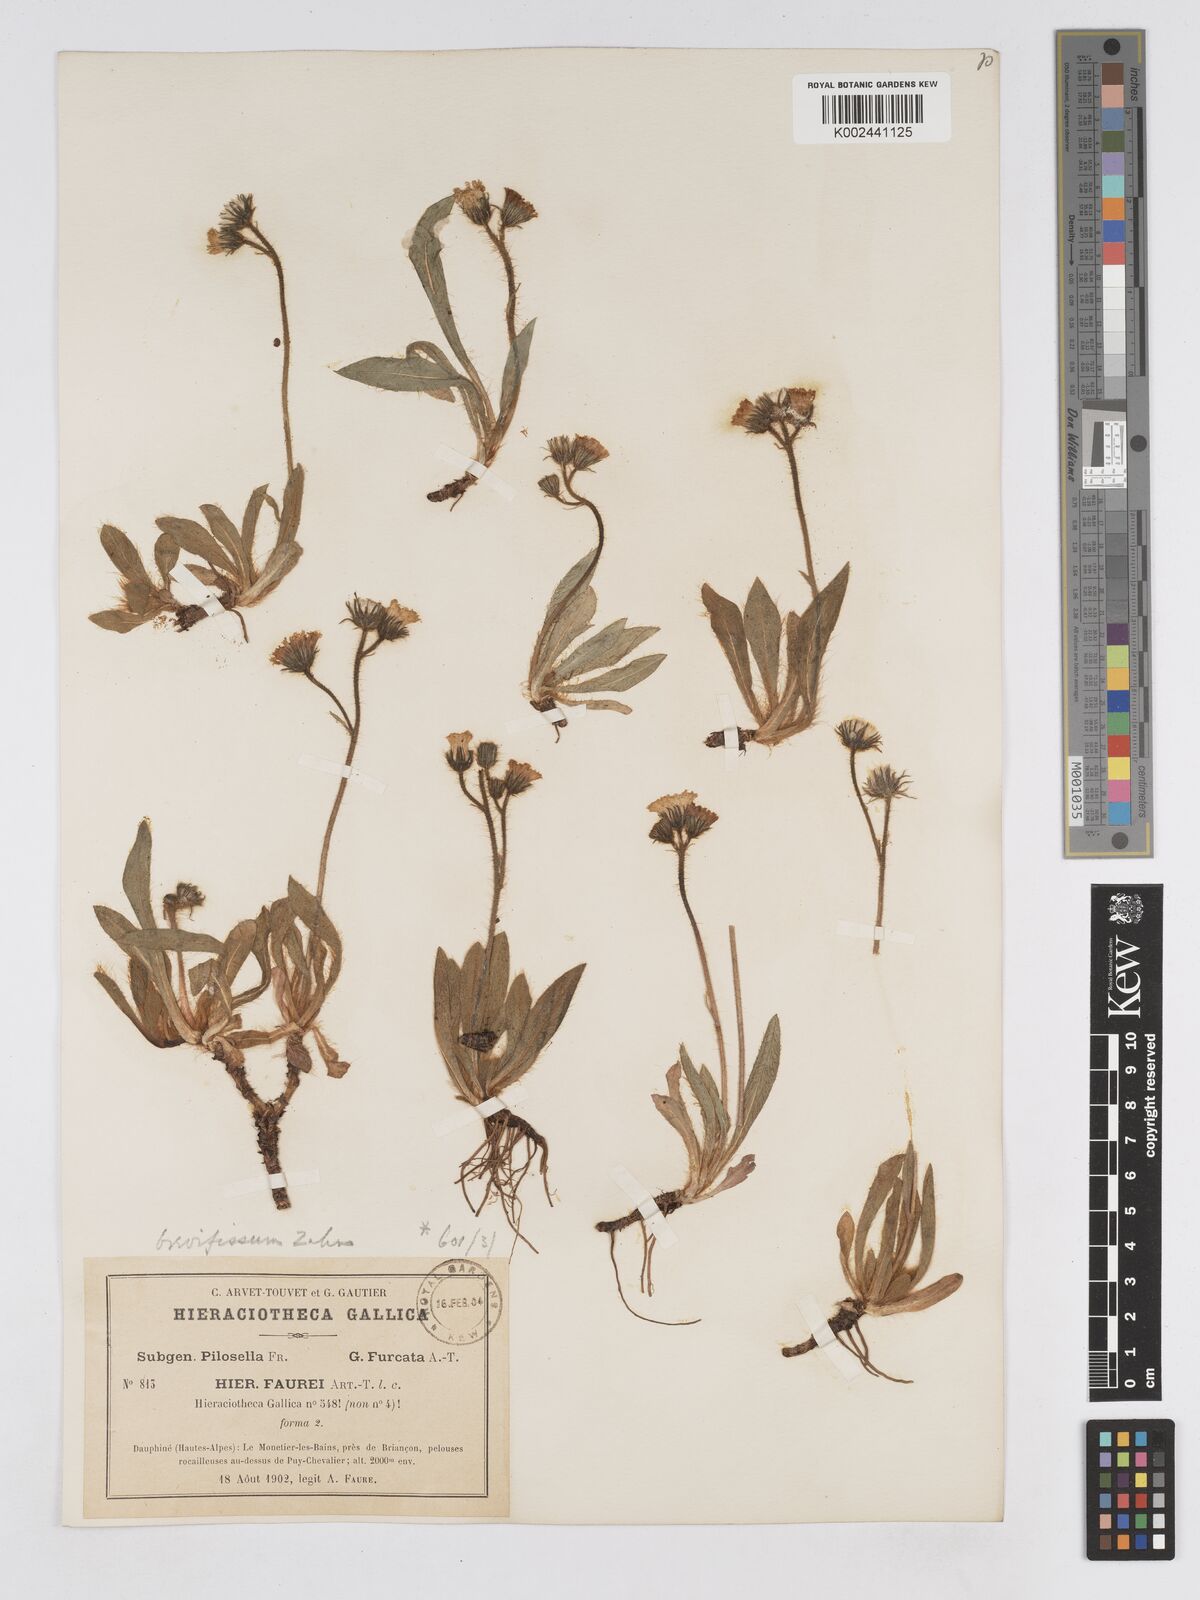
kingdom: Plantae
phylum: Tracheophyta
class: Magnoliopsida
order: Asterales
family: Asteraceae
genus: Pilosella
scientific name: Pilosella subrubens
